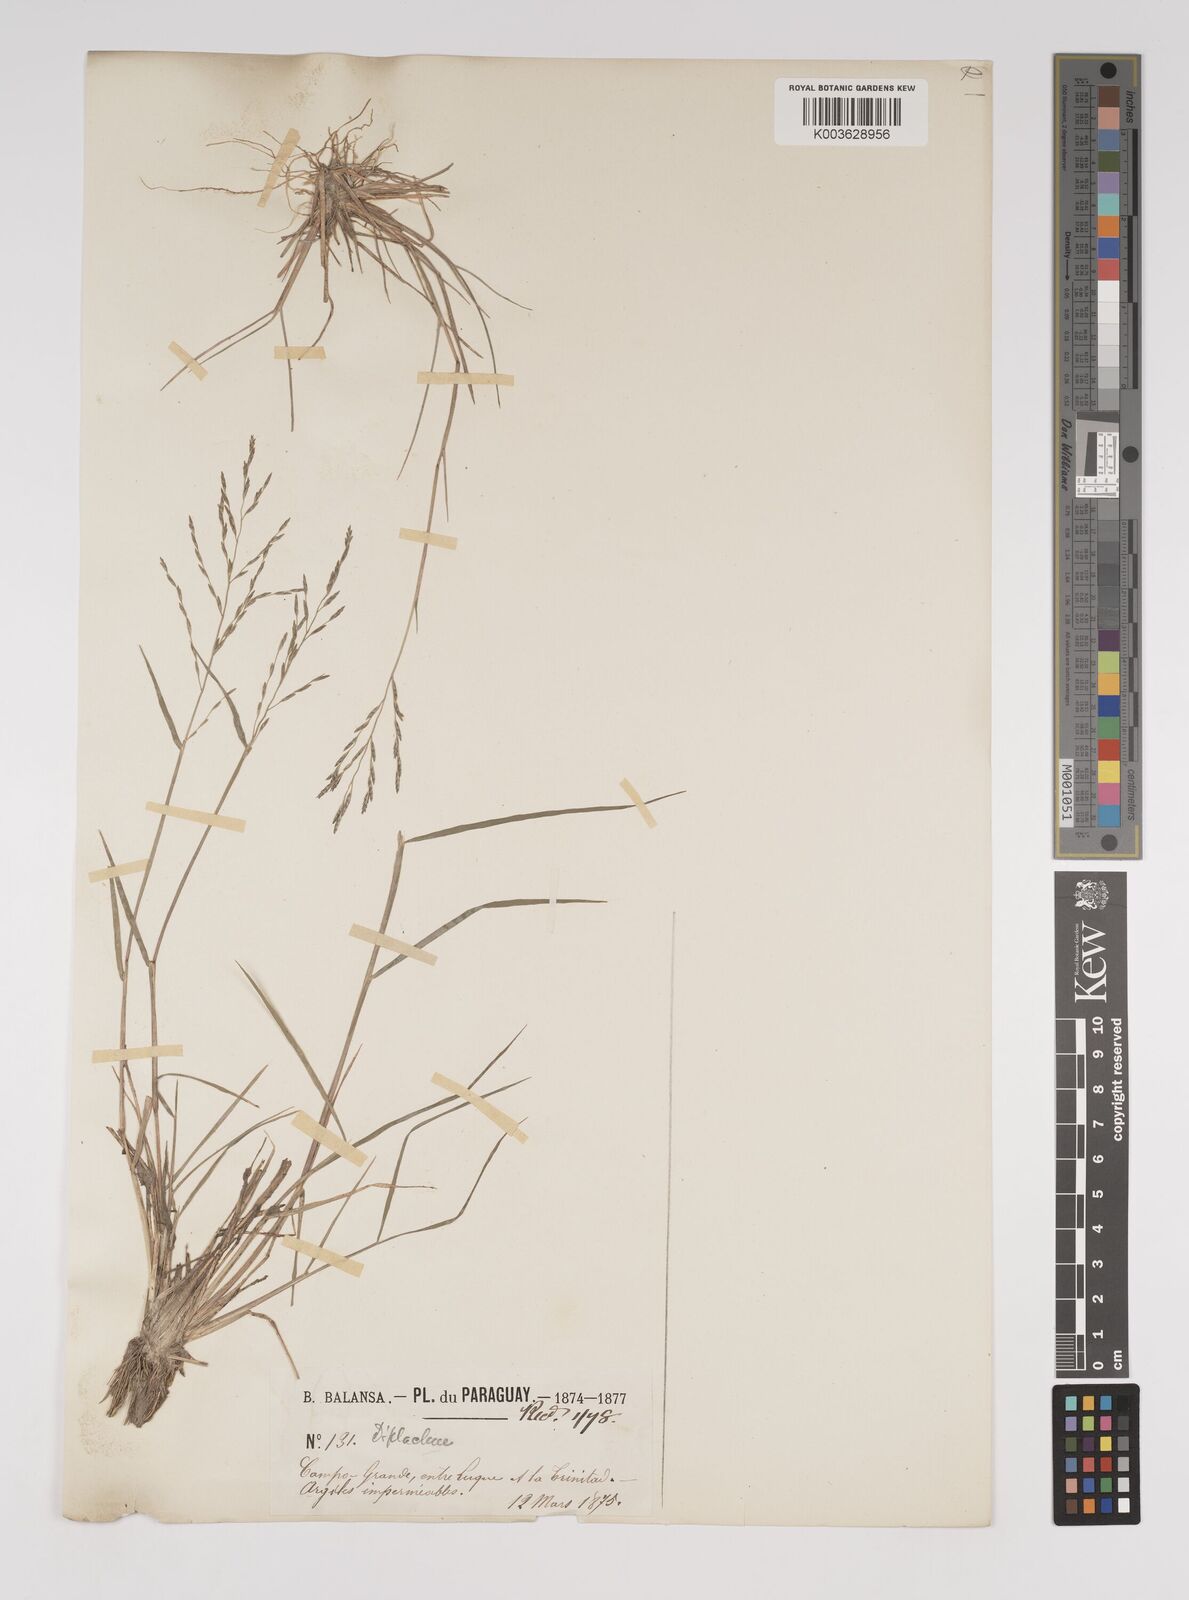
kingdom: Plantae
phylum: Tracheophyta
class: Liliopsida
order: Poales
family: Poaceae
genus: Leptochloa
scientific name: Leptochloa
